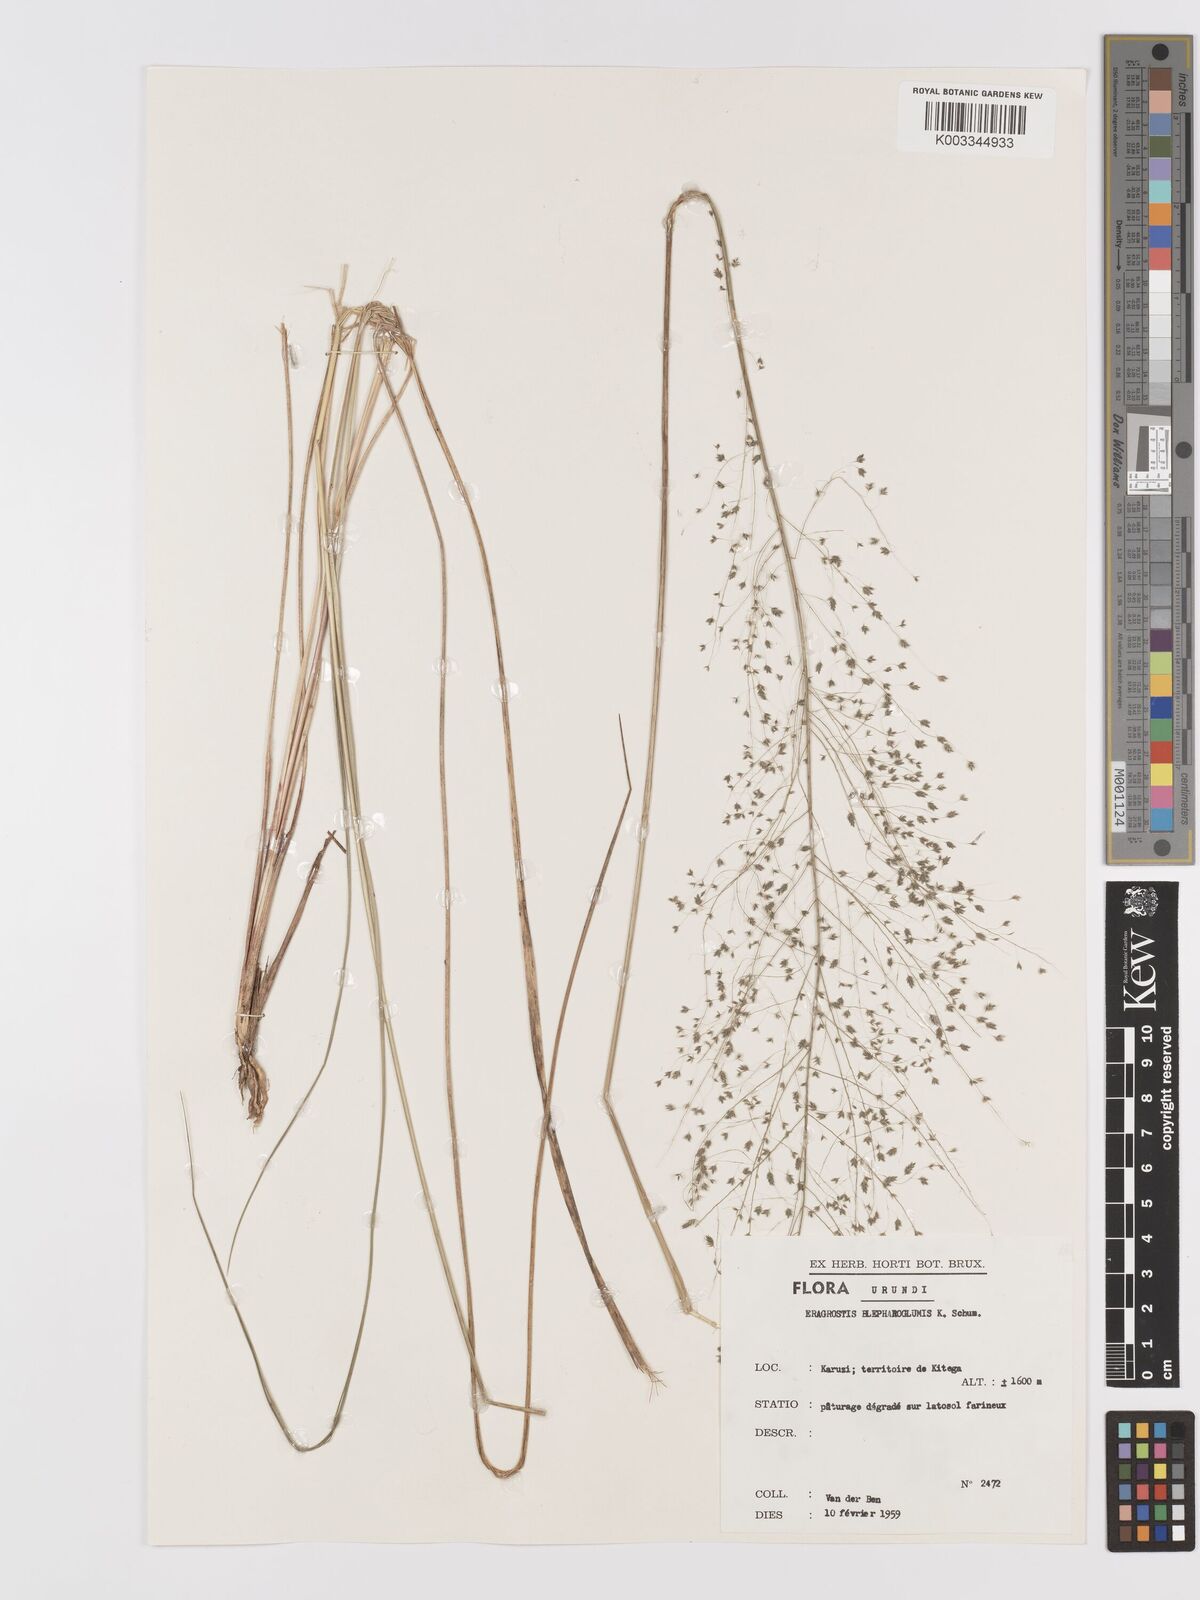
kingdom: Plantae
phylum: Tracheophyta
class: Liliopsida
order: Poales
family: Poaceae
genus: Eragrostis
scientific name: Eragrostis olivacea
